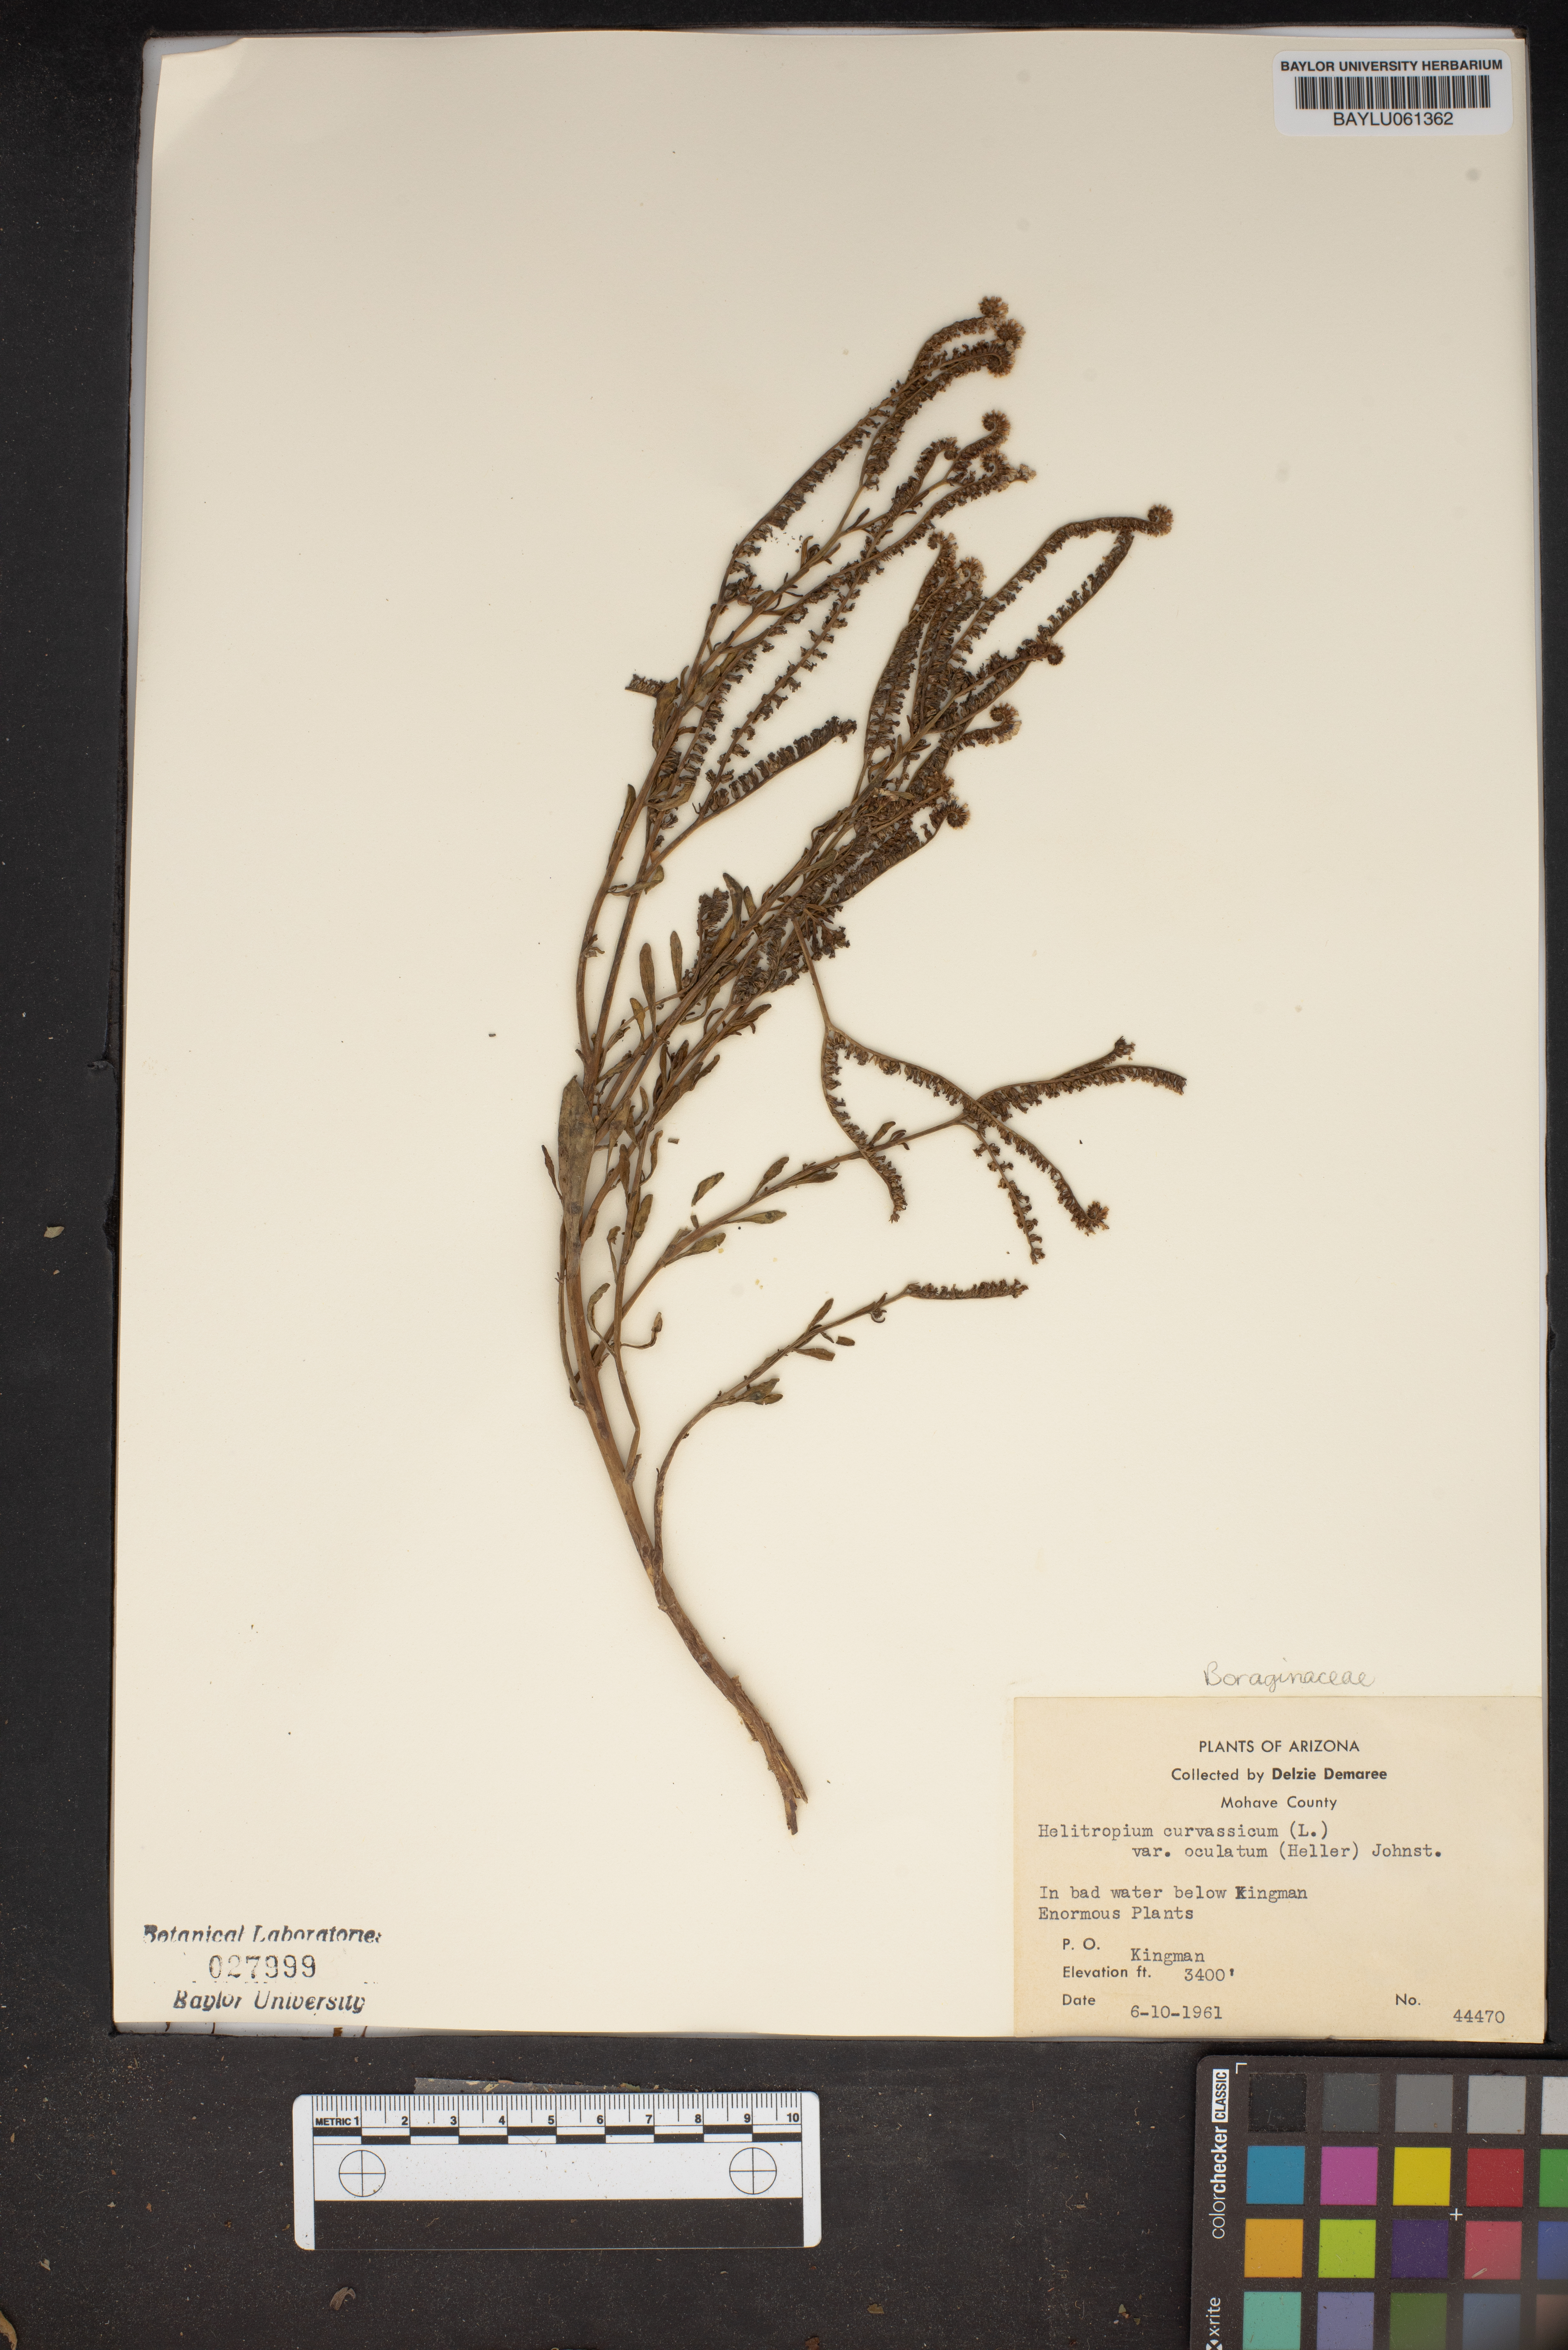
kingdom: Plantae
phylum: Tracheophyta
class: Magnoliopsida
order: Boraginales
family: Heliotropiaceae
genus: Heliotropium
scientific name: Heliotropium curassavicum
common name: Seaside heliotrope
